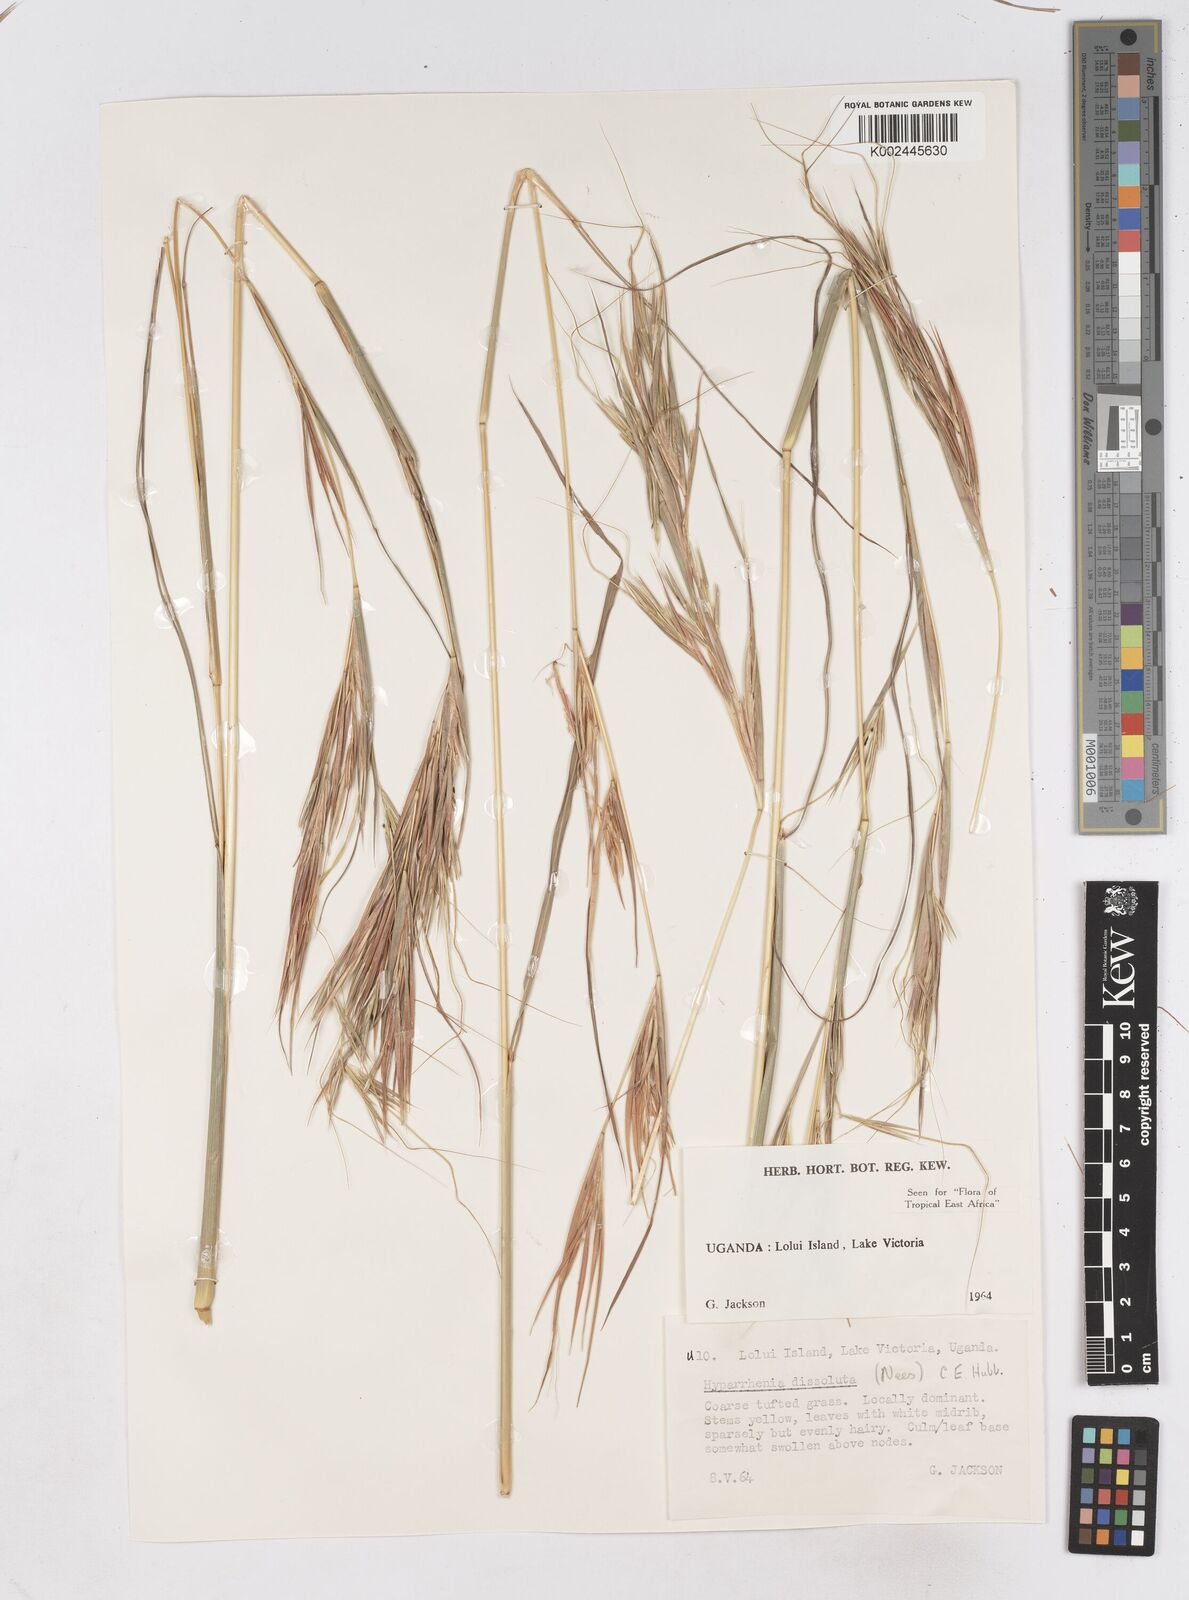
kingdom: Plantae
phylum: Tracheophyta
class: Liliopsida
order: Poales
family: Poaceae
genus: Hyperthelia
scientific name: Hyperthelia dissoluta
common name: Yellow thatching grass
